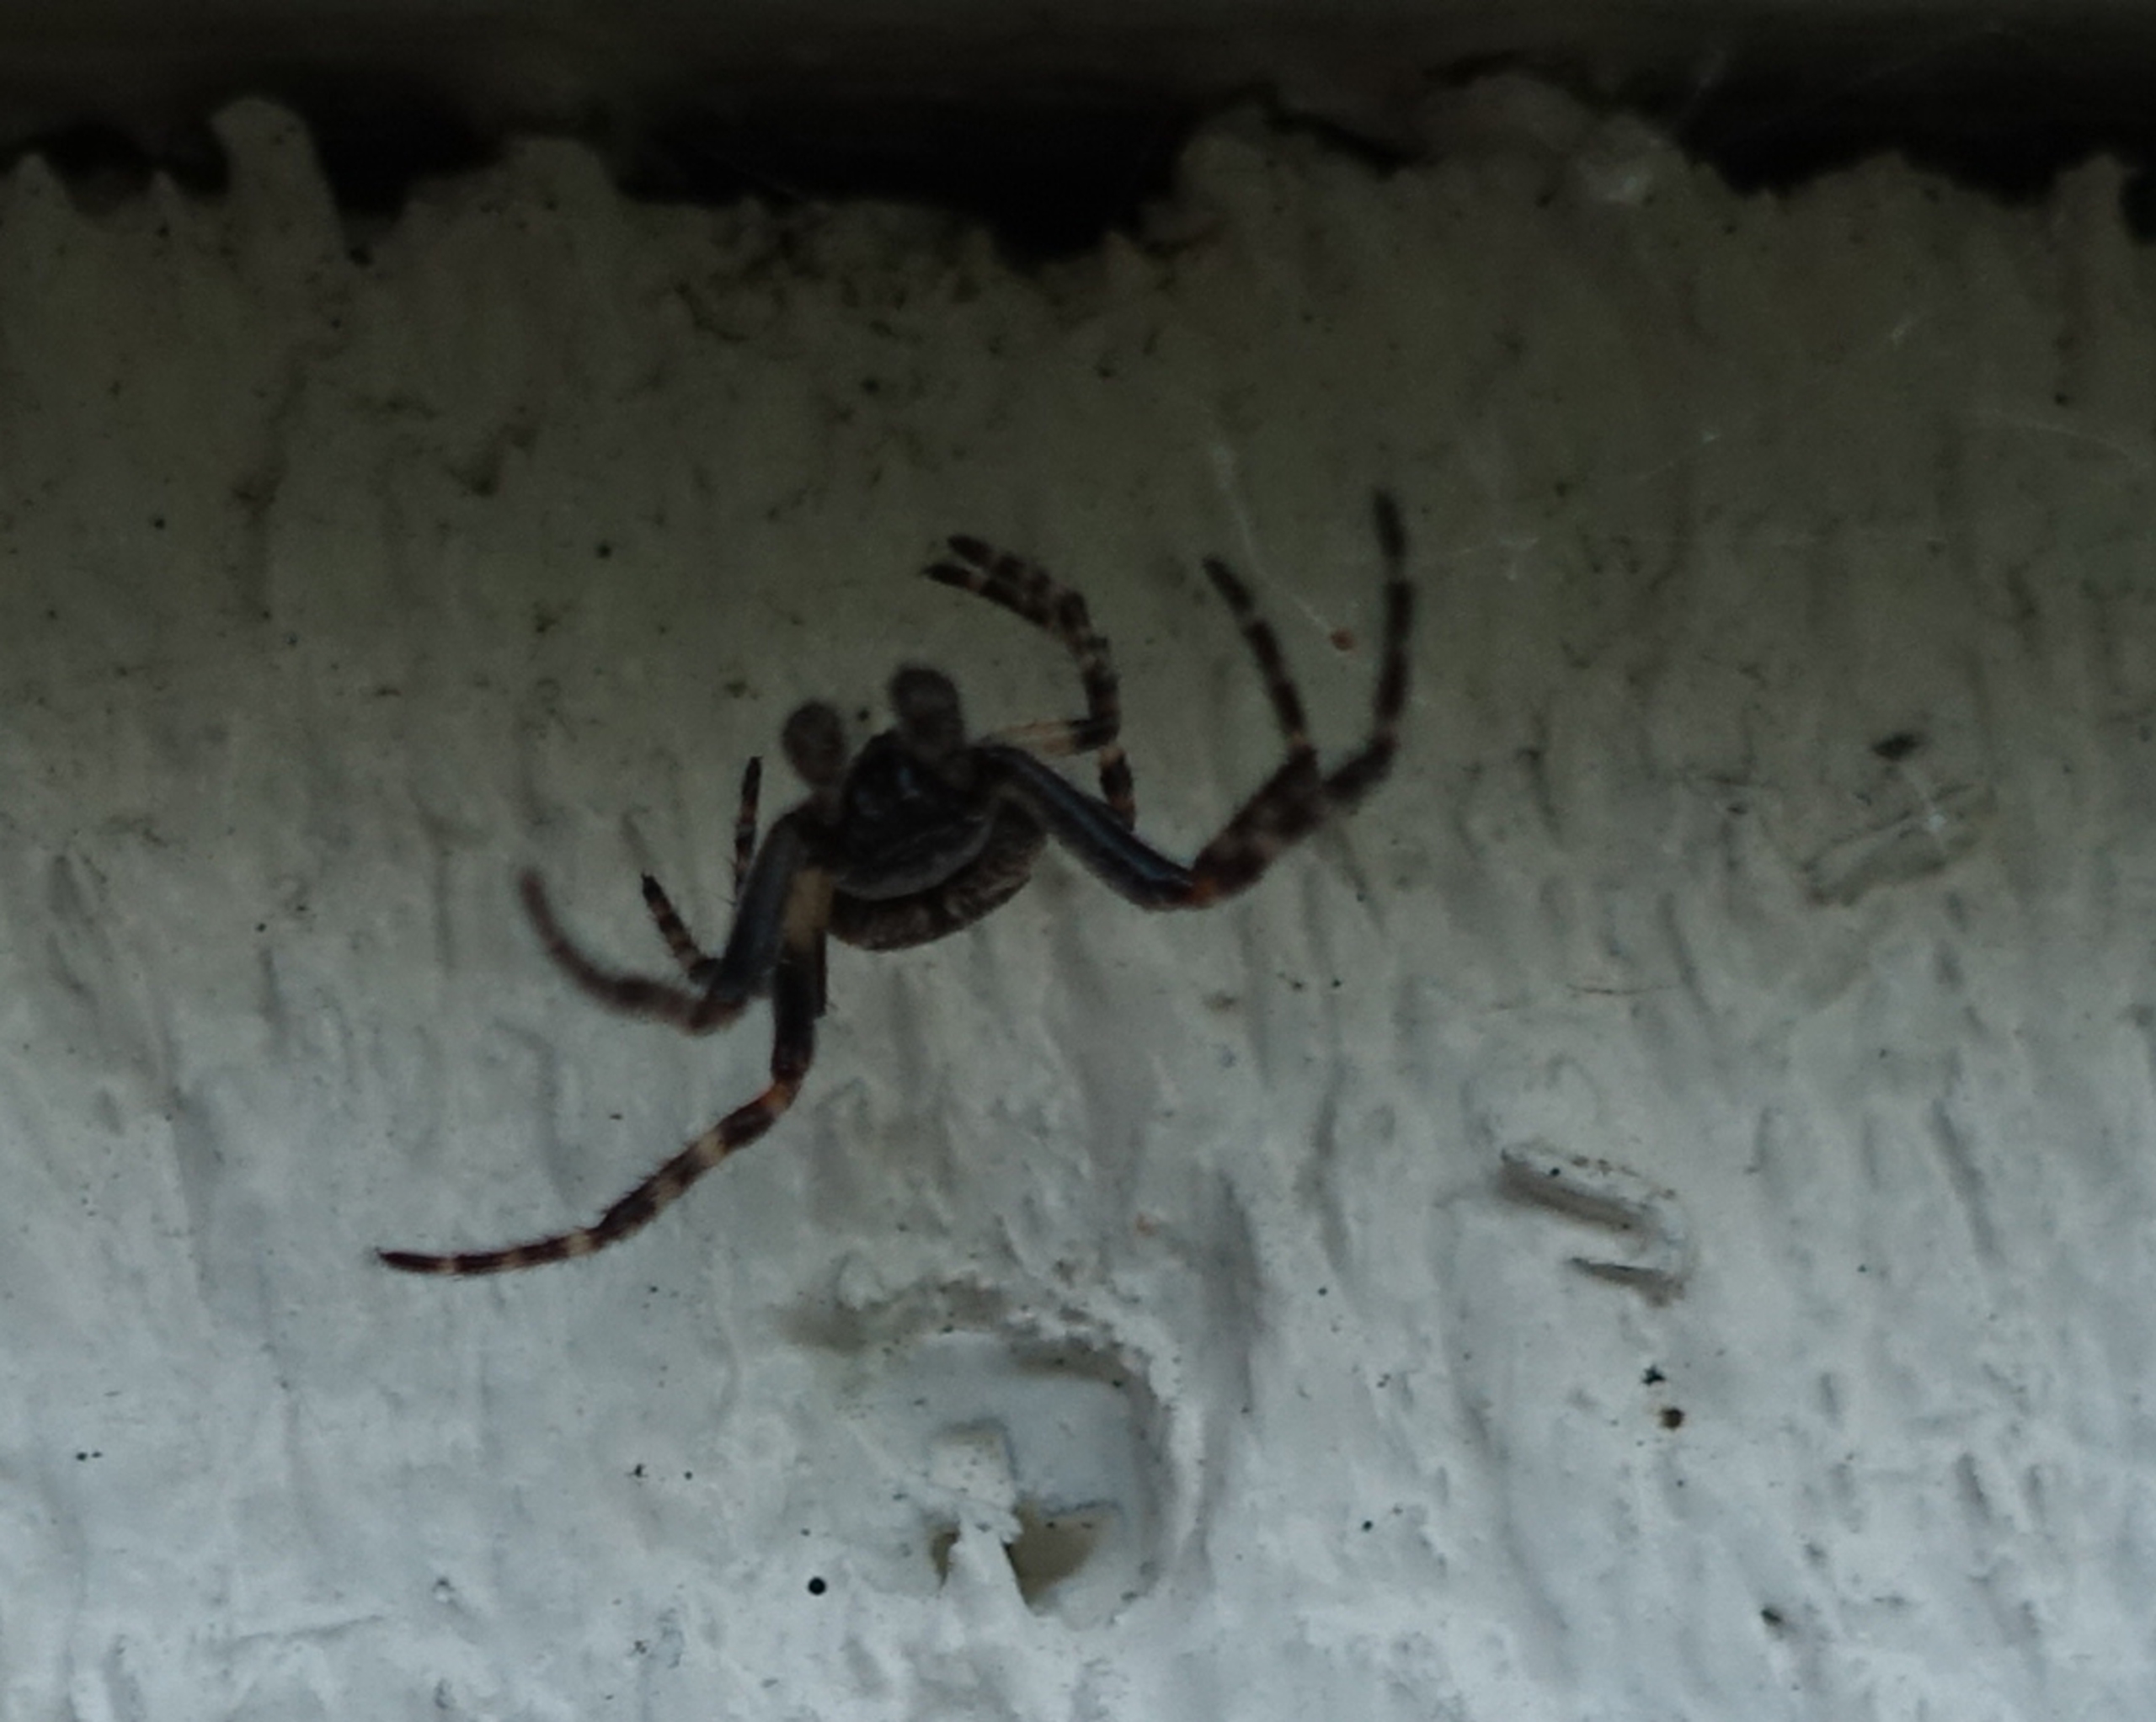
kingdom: Animalia
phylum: Arthropoda
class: Arachnida
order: Araneae
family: Araneidae
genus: Nuctenea
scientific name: Nuctenea umbratica
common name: Flad hjulspinder
